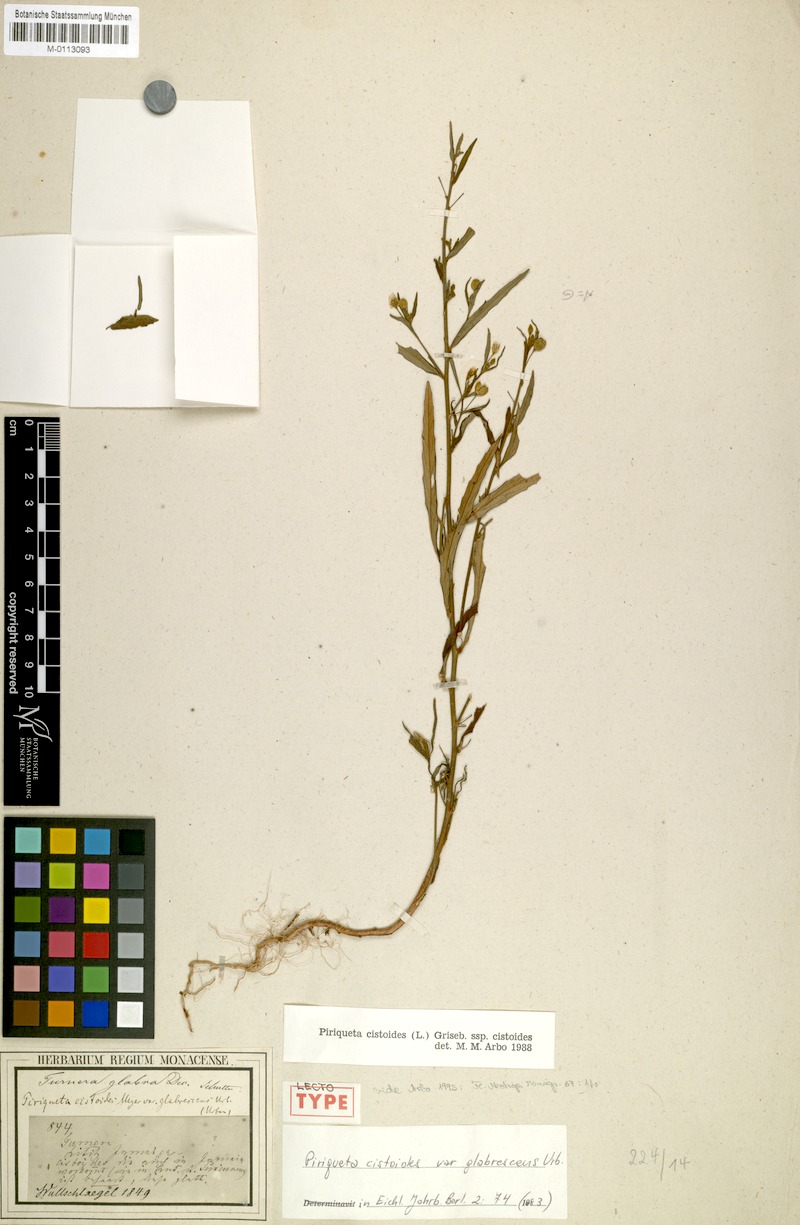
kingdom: Plantae
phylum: Tracheophyta
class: Magnoliopsida
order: Malpighiales
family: Turneraceae
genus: Piriqueta
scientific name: Piriqueta cistoides
